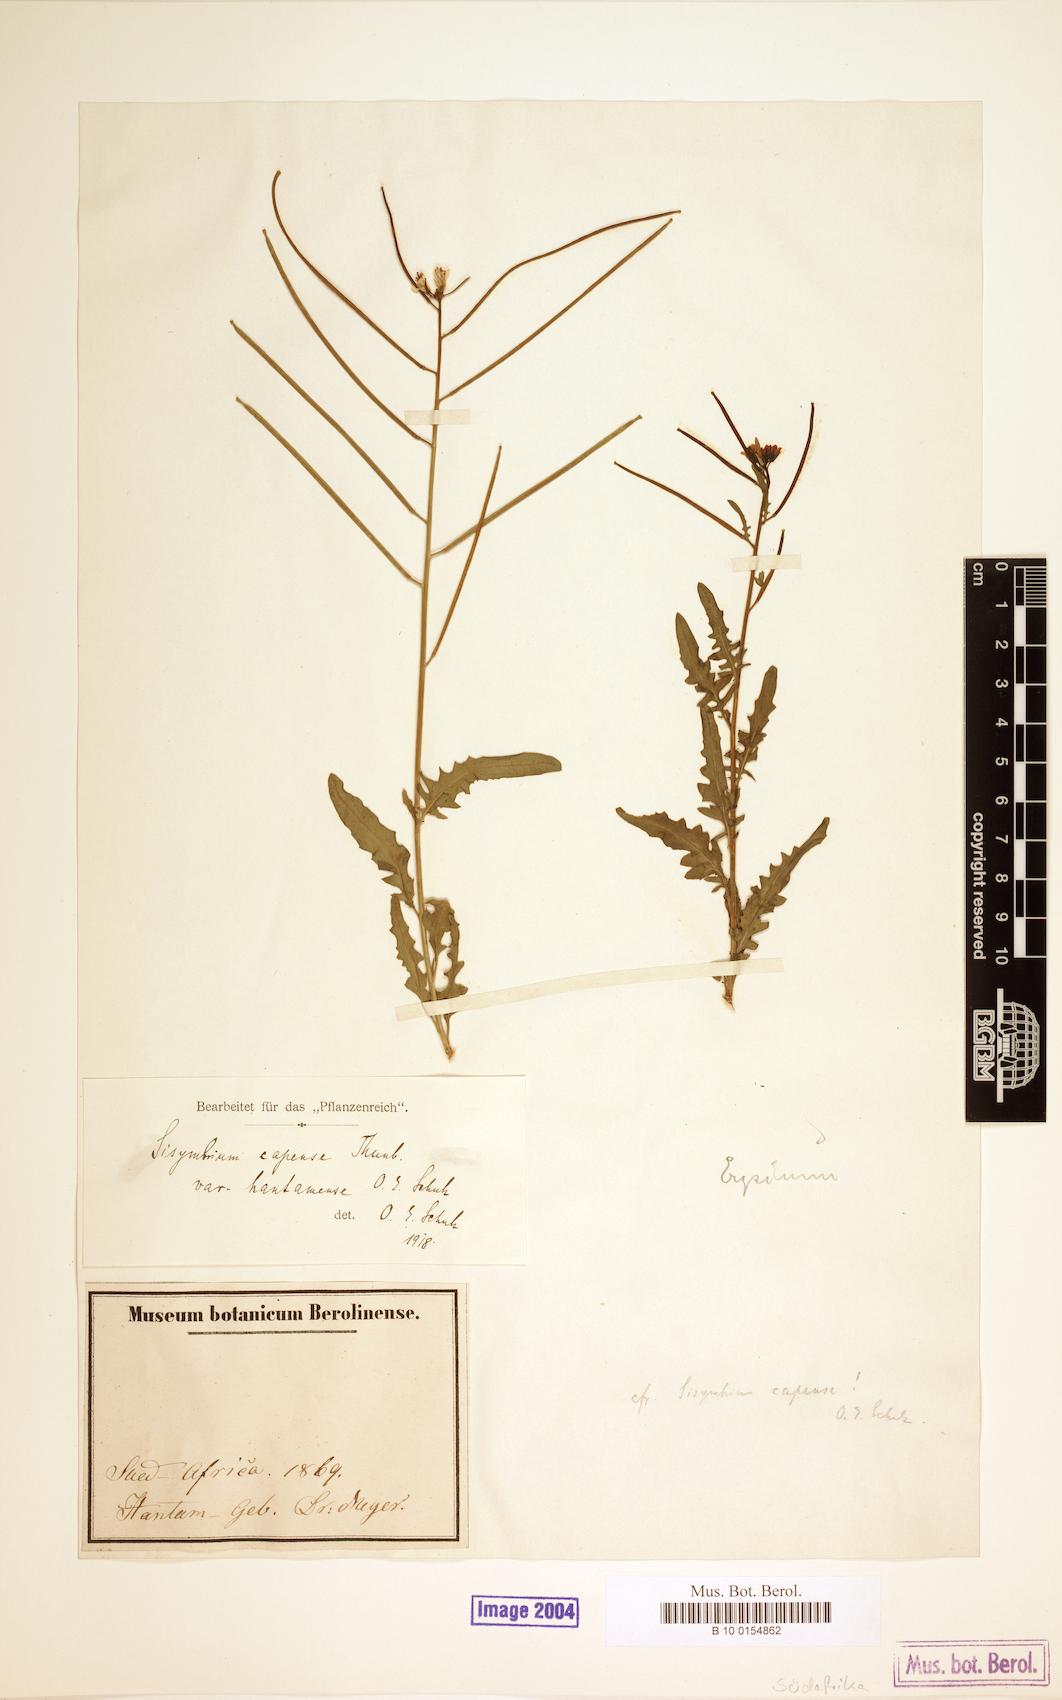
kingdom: Plantae
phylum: Tracheophyta
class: Magnoliopsida
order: Brassicales
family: Brassicaceae
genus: Sisymbrium
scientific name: Sisymbrium capense
